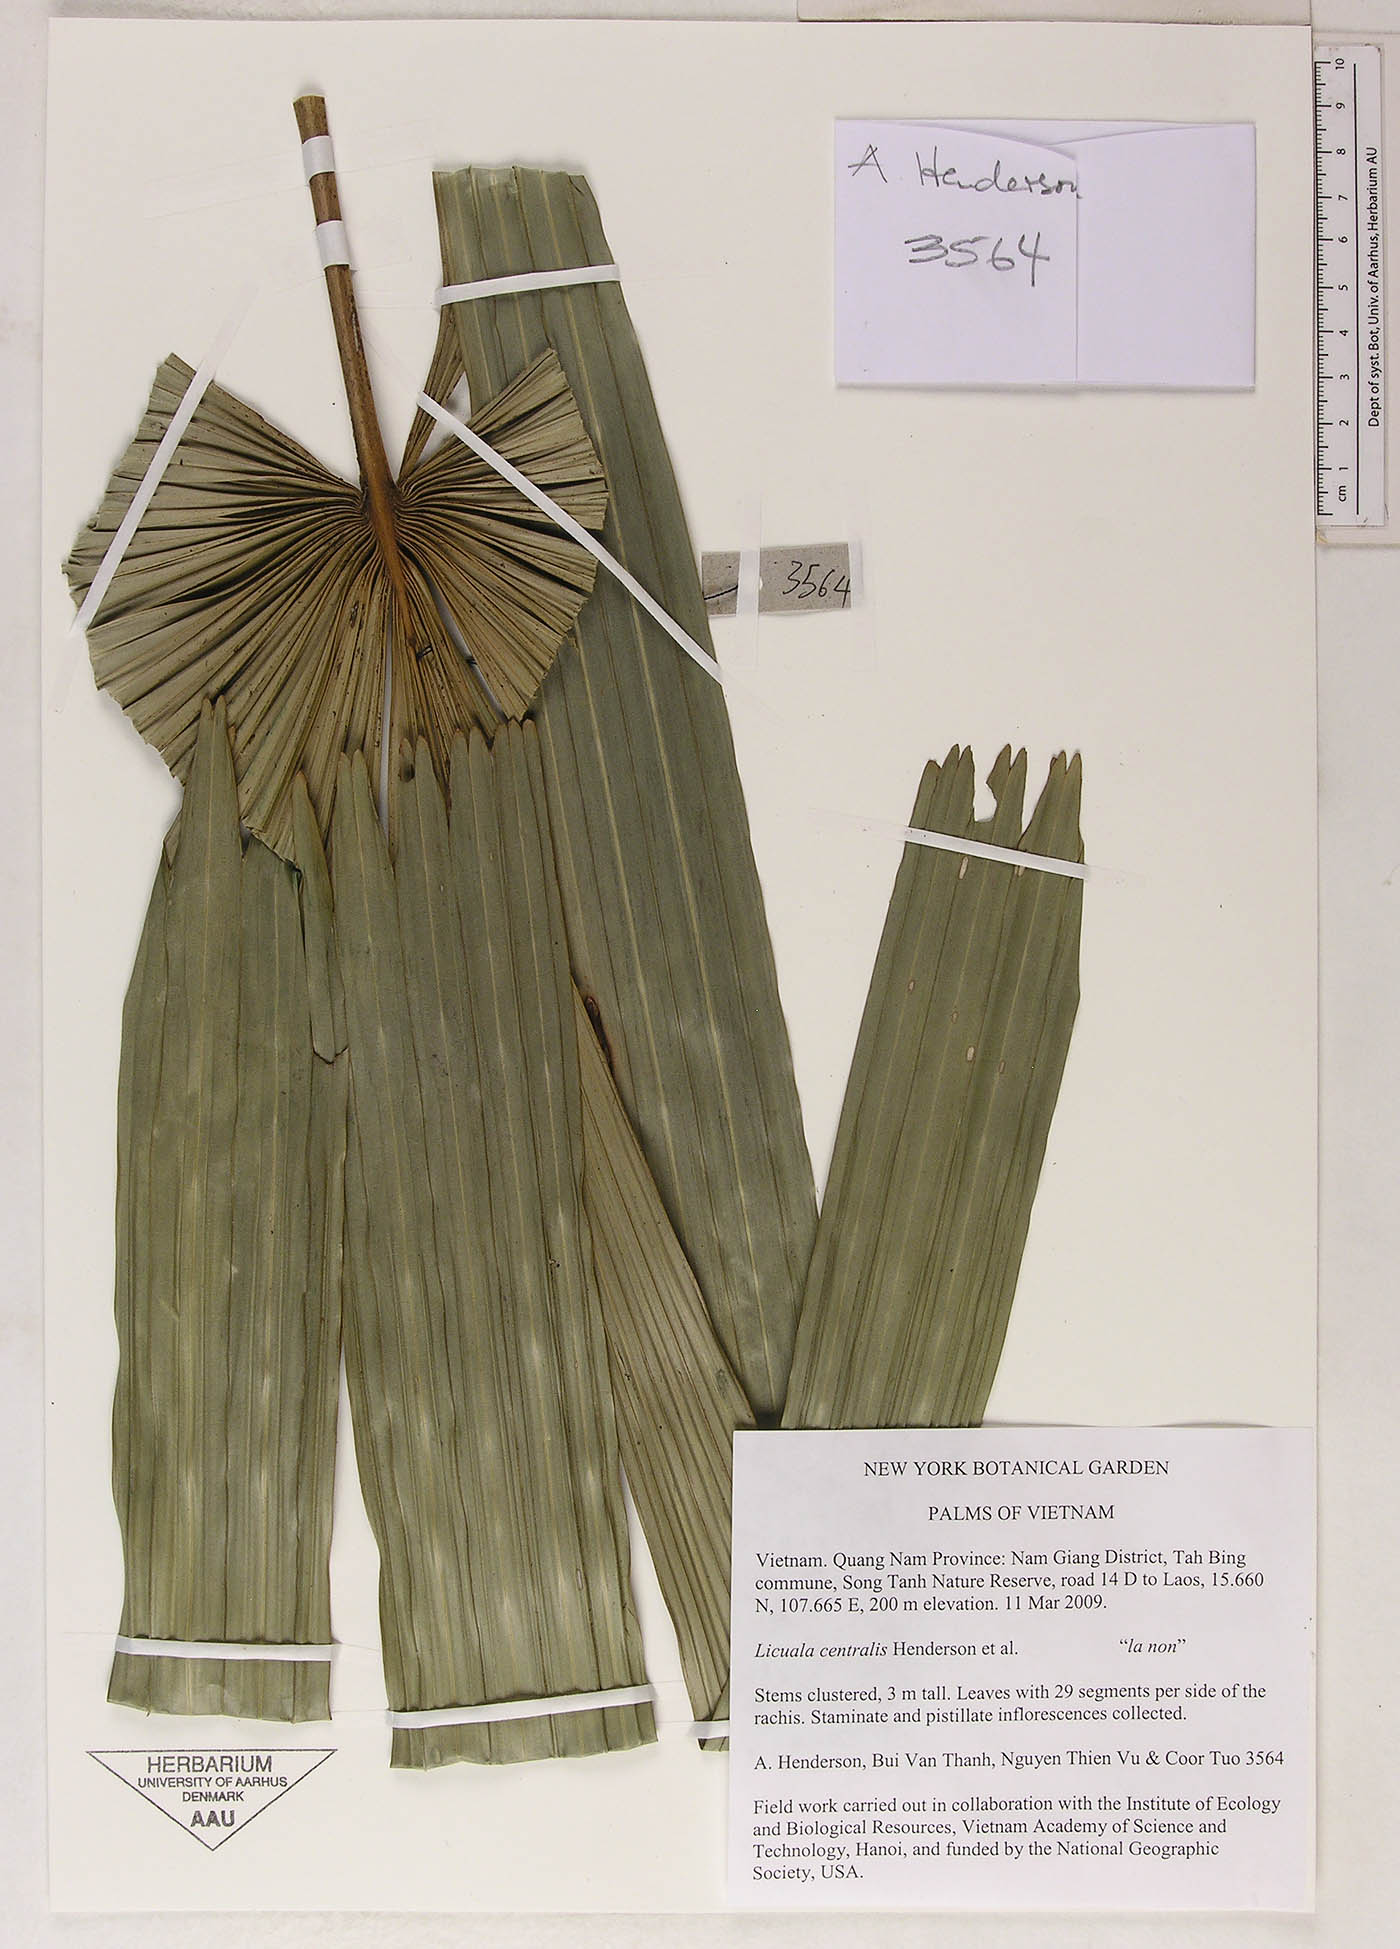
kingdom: Plantae
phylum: Tracheophyta
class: Liliopsida
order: Arecales
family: Arecaceae
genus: Lanonia
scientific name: Lanonia centralis
